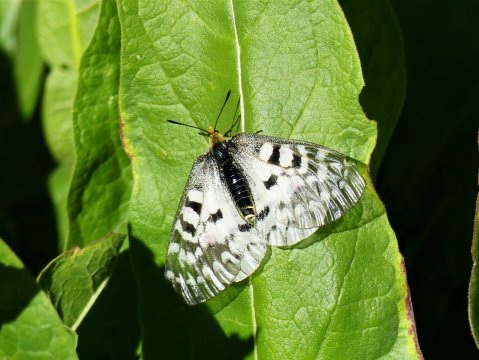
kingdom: Animalia
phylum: Arthropoda
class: Insecta
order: Lepidoptera
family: Papilionidae
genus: Parnassius
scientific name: Parnassius clodius
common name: Clodius Parnassian
